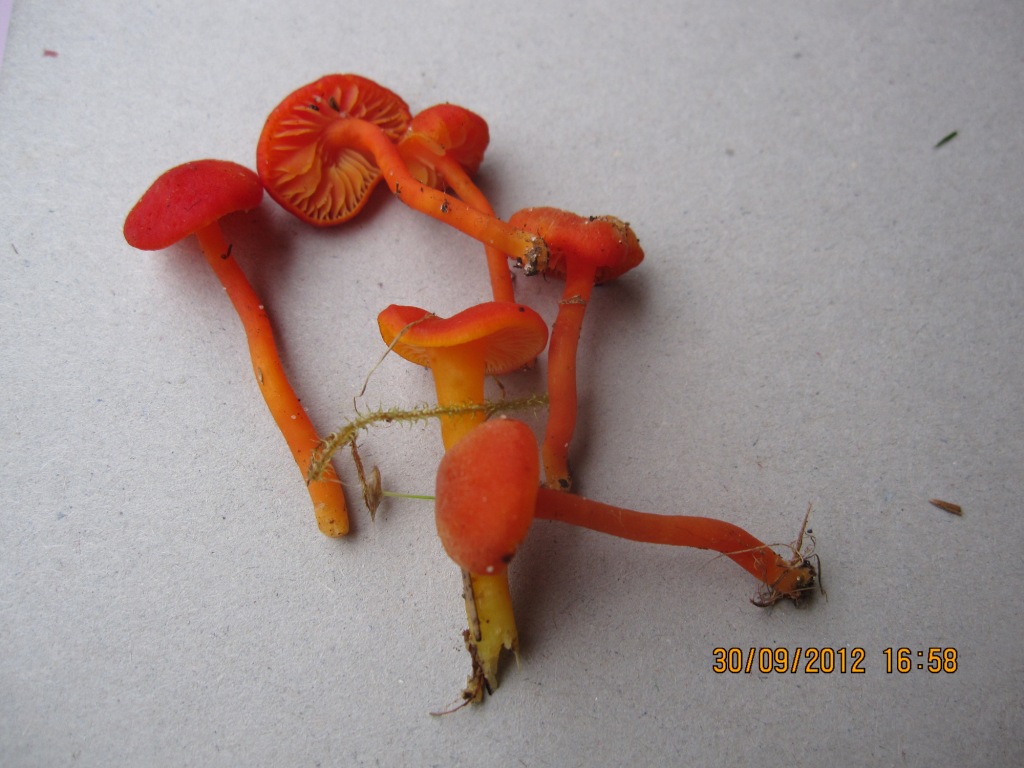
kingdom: Fungi
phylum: Basidiomycota
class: Agaricomycetes
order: Agaricales
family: Hygrophoraceae
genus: Hygrocybe
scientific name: Hygrocybe miniata
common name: mønje-vokshat
